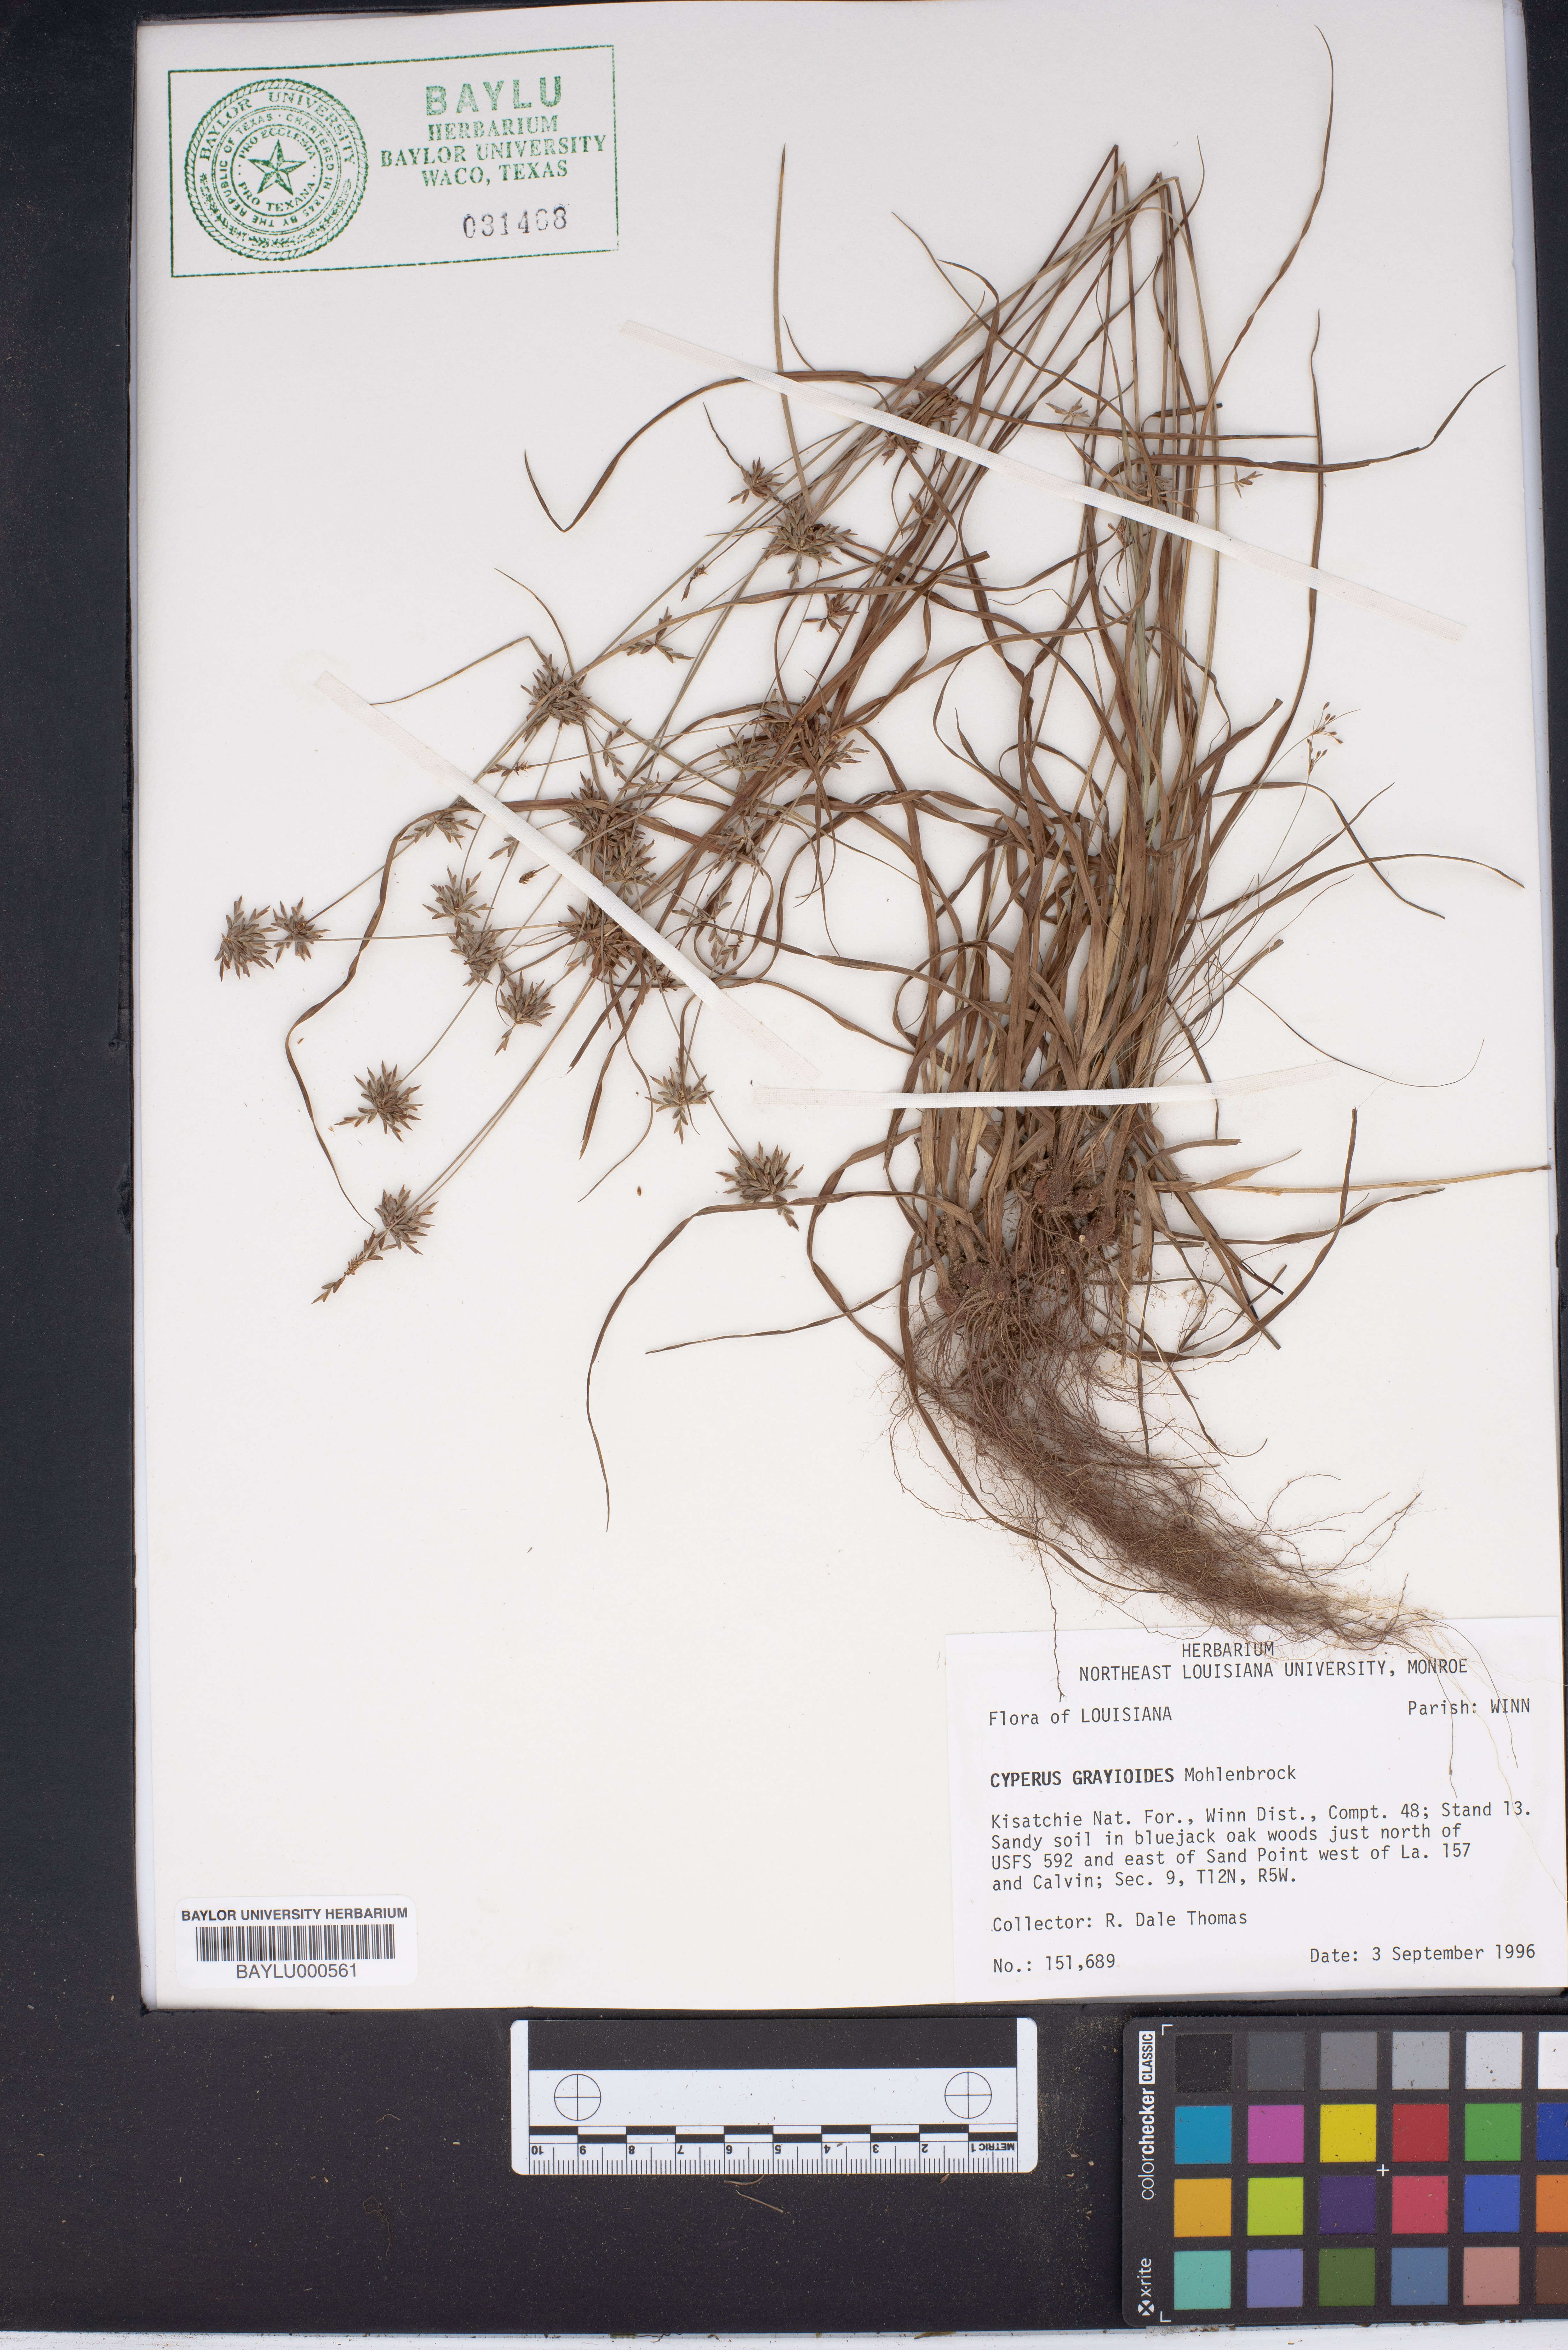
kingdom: Plantae
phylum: Tracheophyta
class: Liliopsida
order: Poales
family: Cyperaceae
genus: Cyperus
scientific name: Cyperus grayioides
